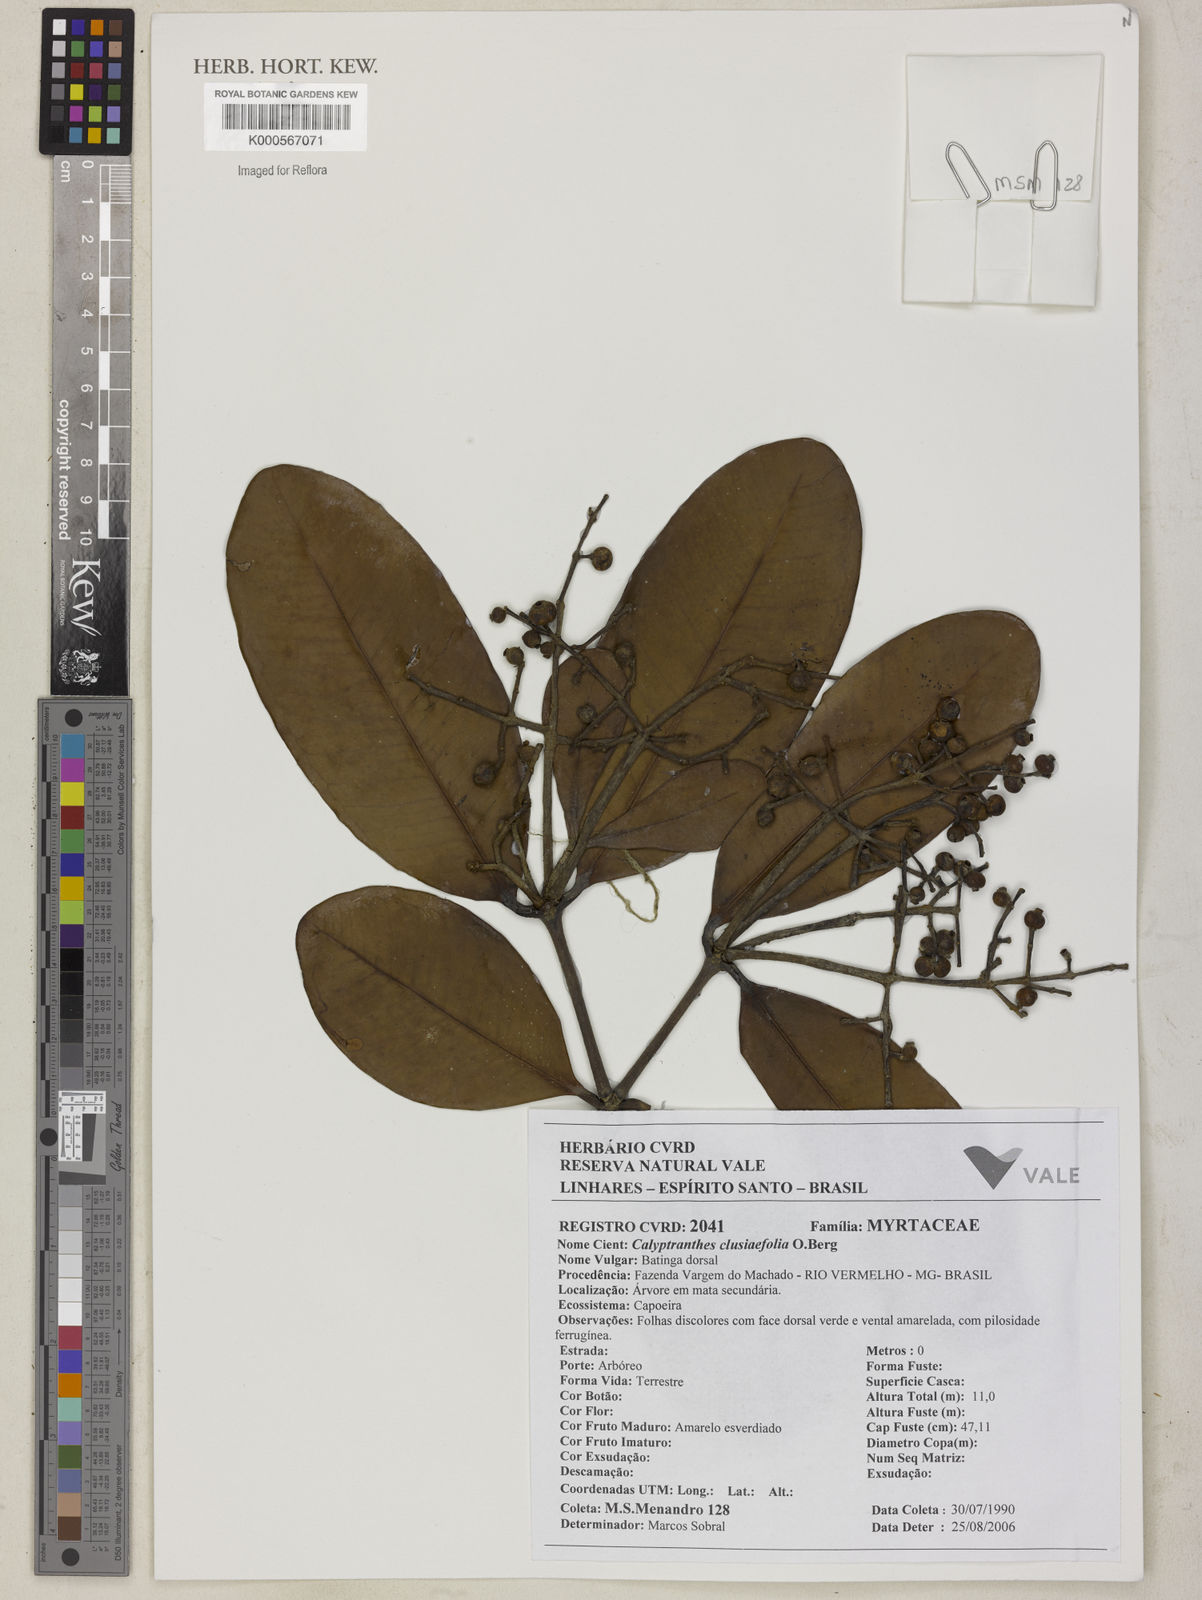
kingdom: Plantae
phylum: Tracheophyta
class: Magnoliopsida
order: Myrtales
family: Myrtaceae
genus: Myrcia
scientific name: Myrcia neoclusiifolia
